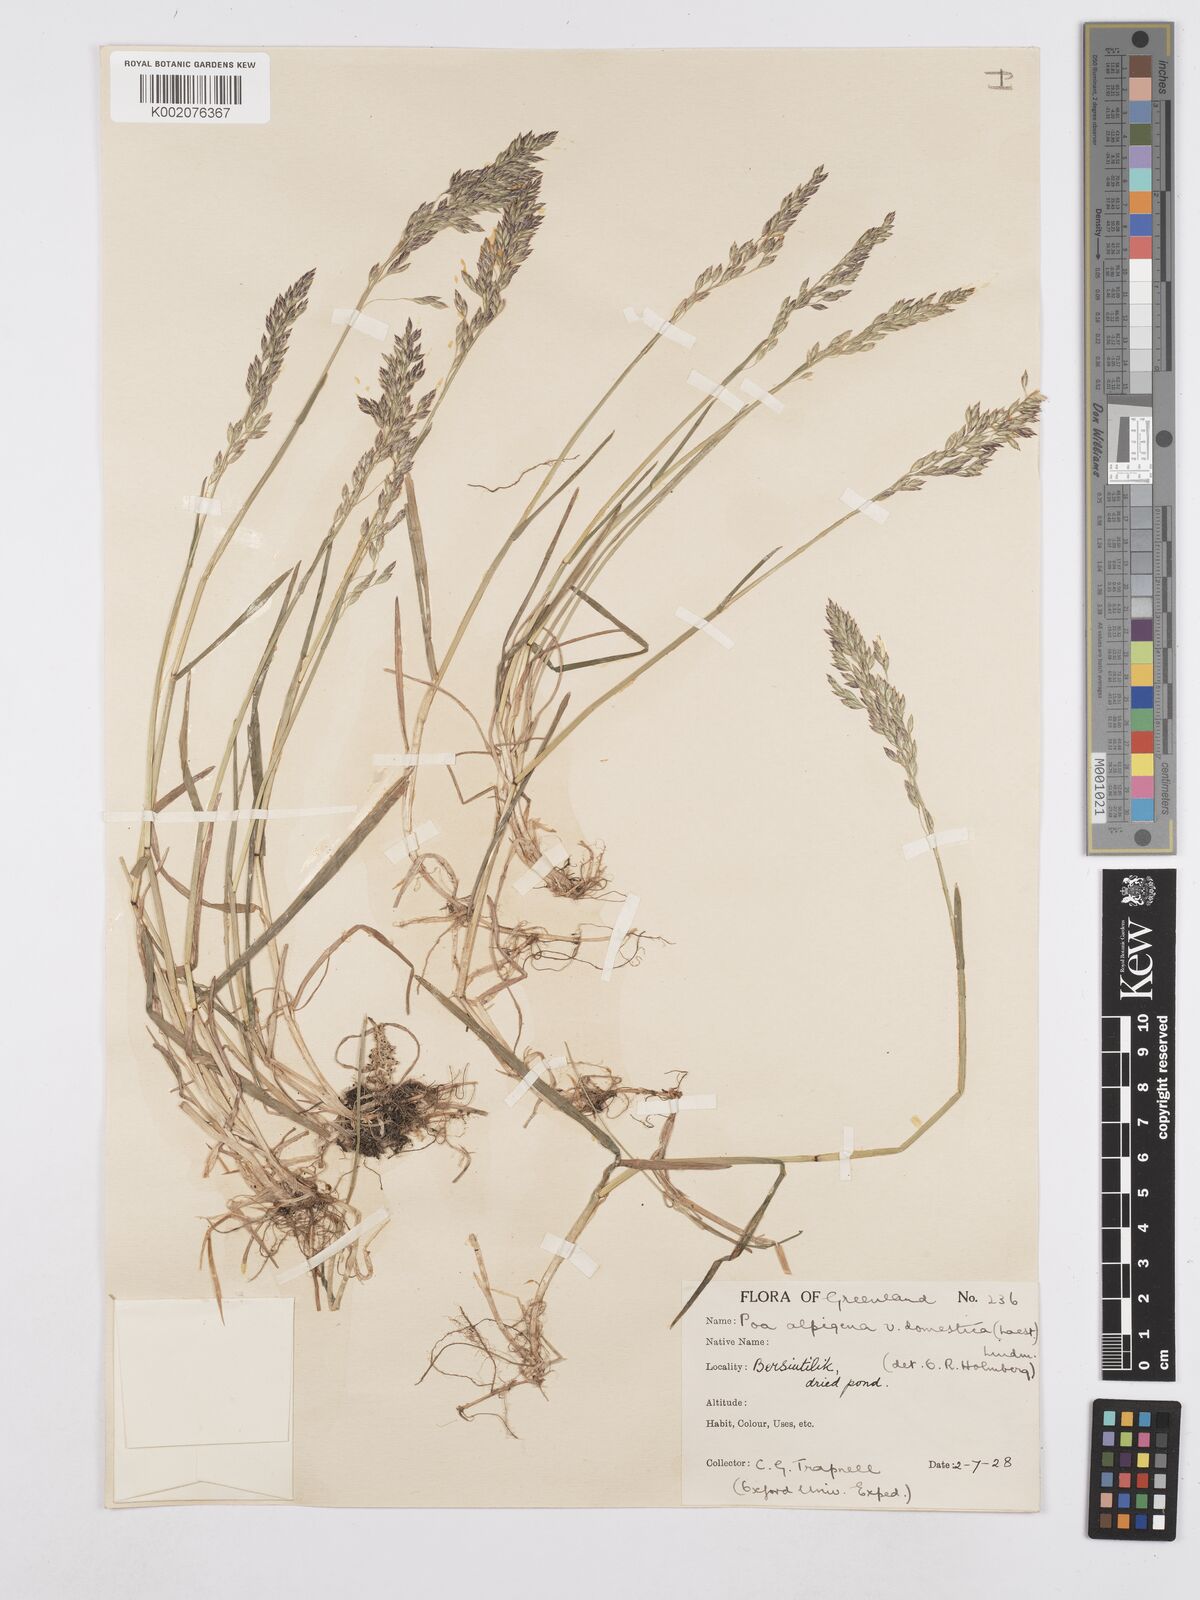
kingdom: Plantae
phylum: Tracheophyta
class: Liliopsida
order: Poales
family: Poaceae
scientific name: Poaceae
